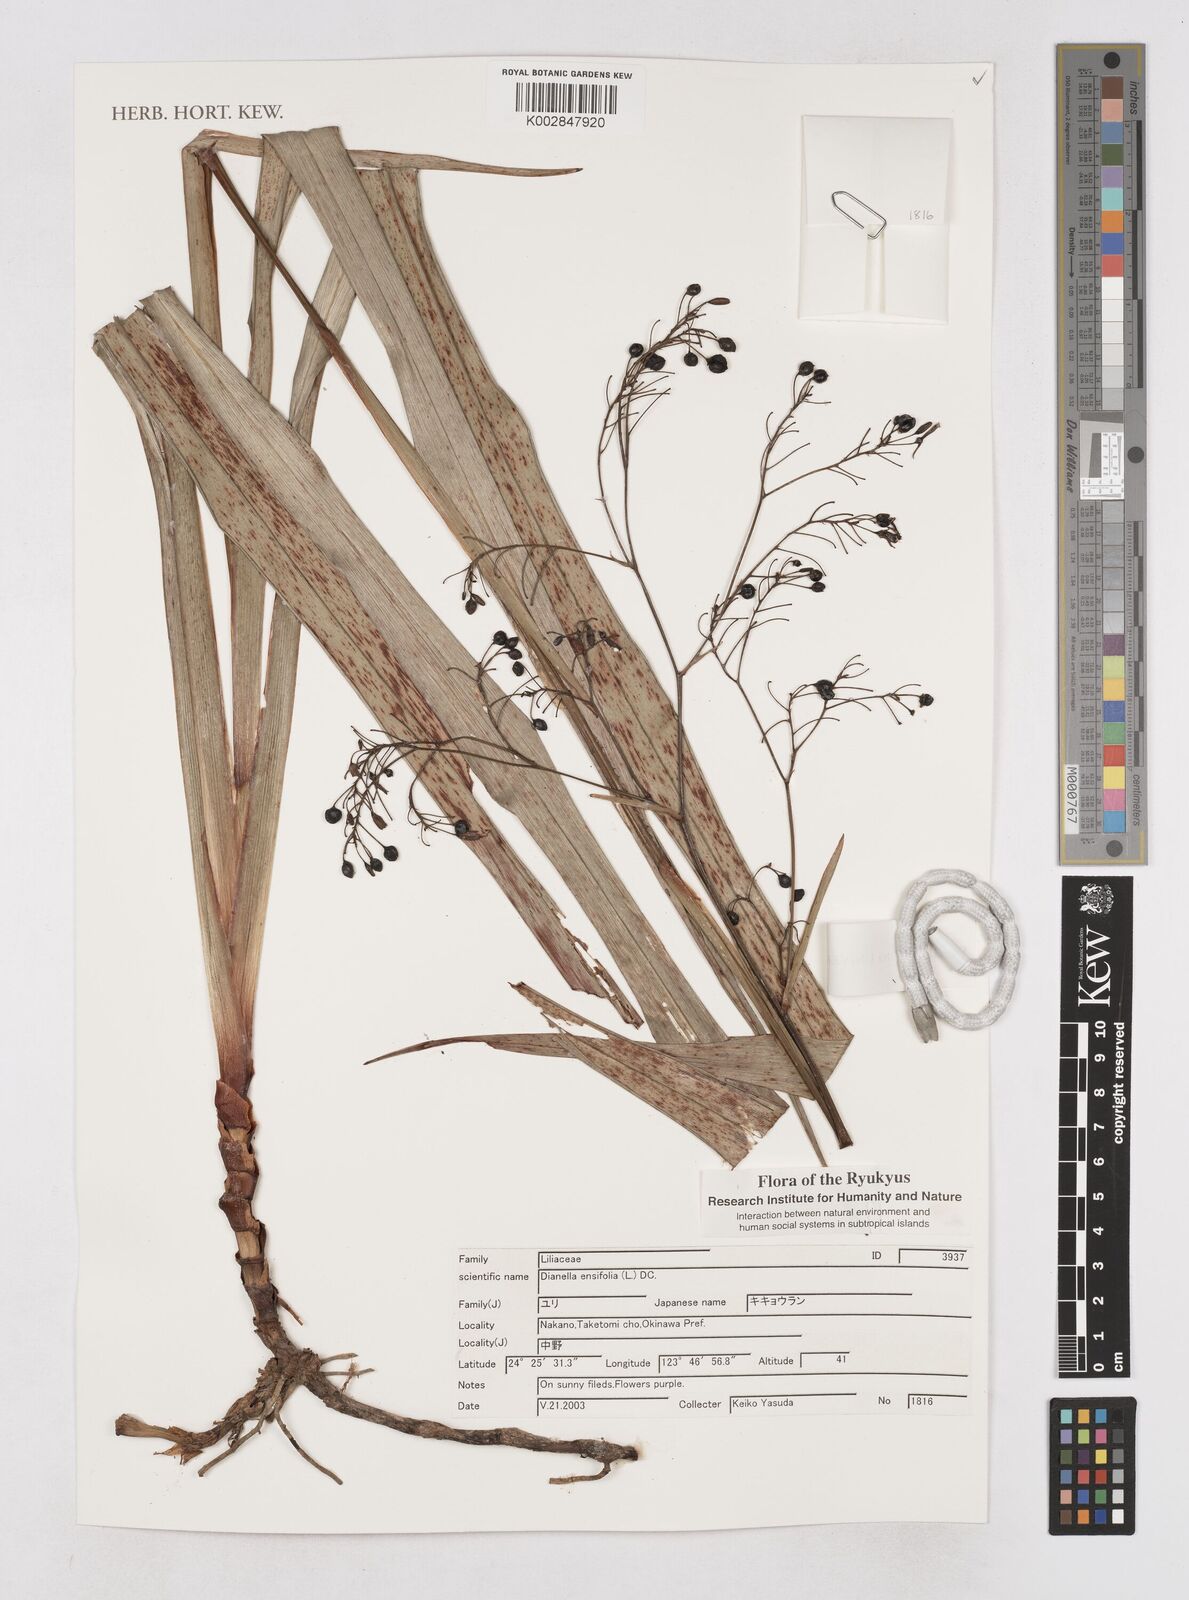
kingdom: Plantae
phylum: Tracheophyta
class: Liliopsida
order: Asparagales
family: Asphodelaceae
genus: Dianella
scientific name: Dianella ensifolia
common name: New zealand lilyplant
